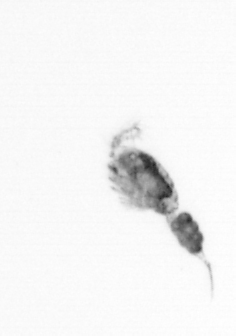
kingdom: Animalia
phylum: Arthropoda
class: Copepoda
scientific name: Copepoda
